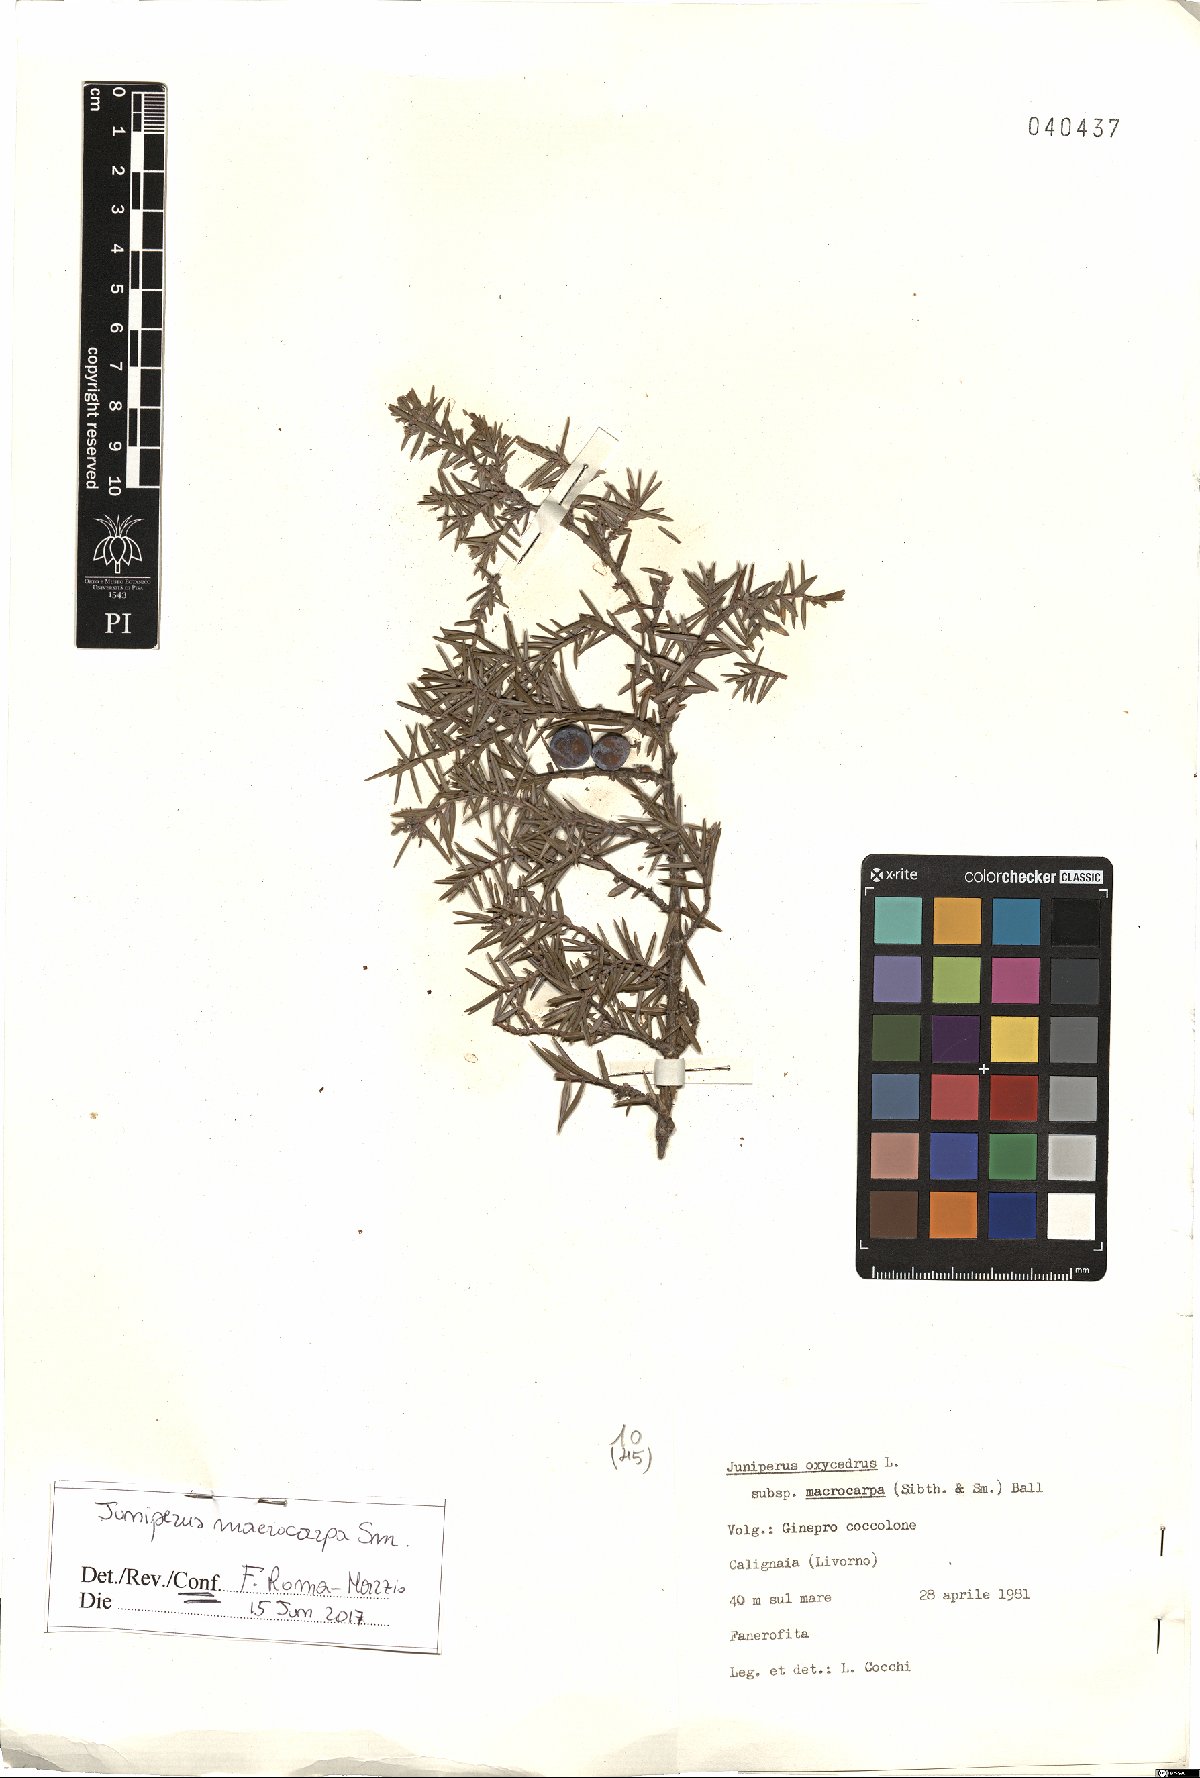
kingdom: Plantae
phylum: Tracheophyta
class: Pinopsida
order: Pinales
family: Cupressaceae
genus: Juniperus
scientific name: Juniperus oxycedrus
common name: Prickly juniper
